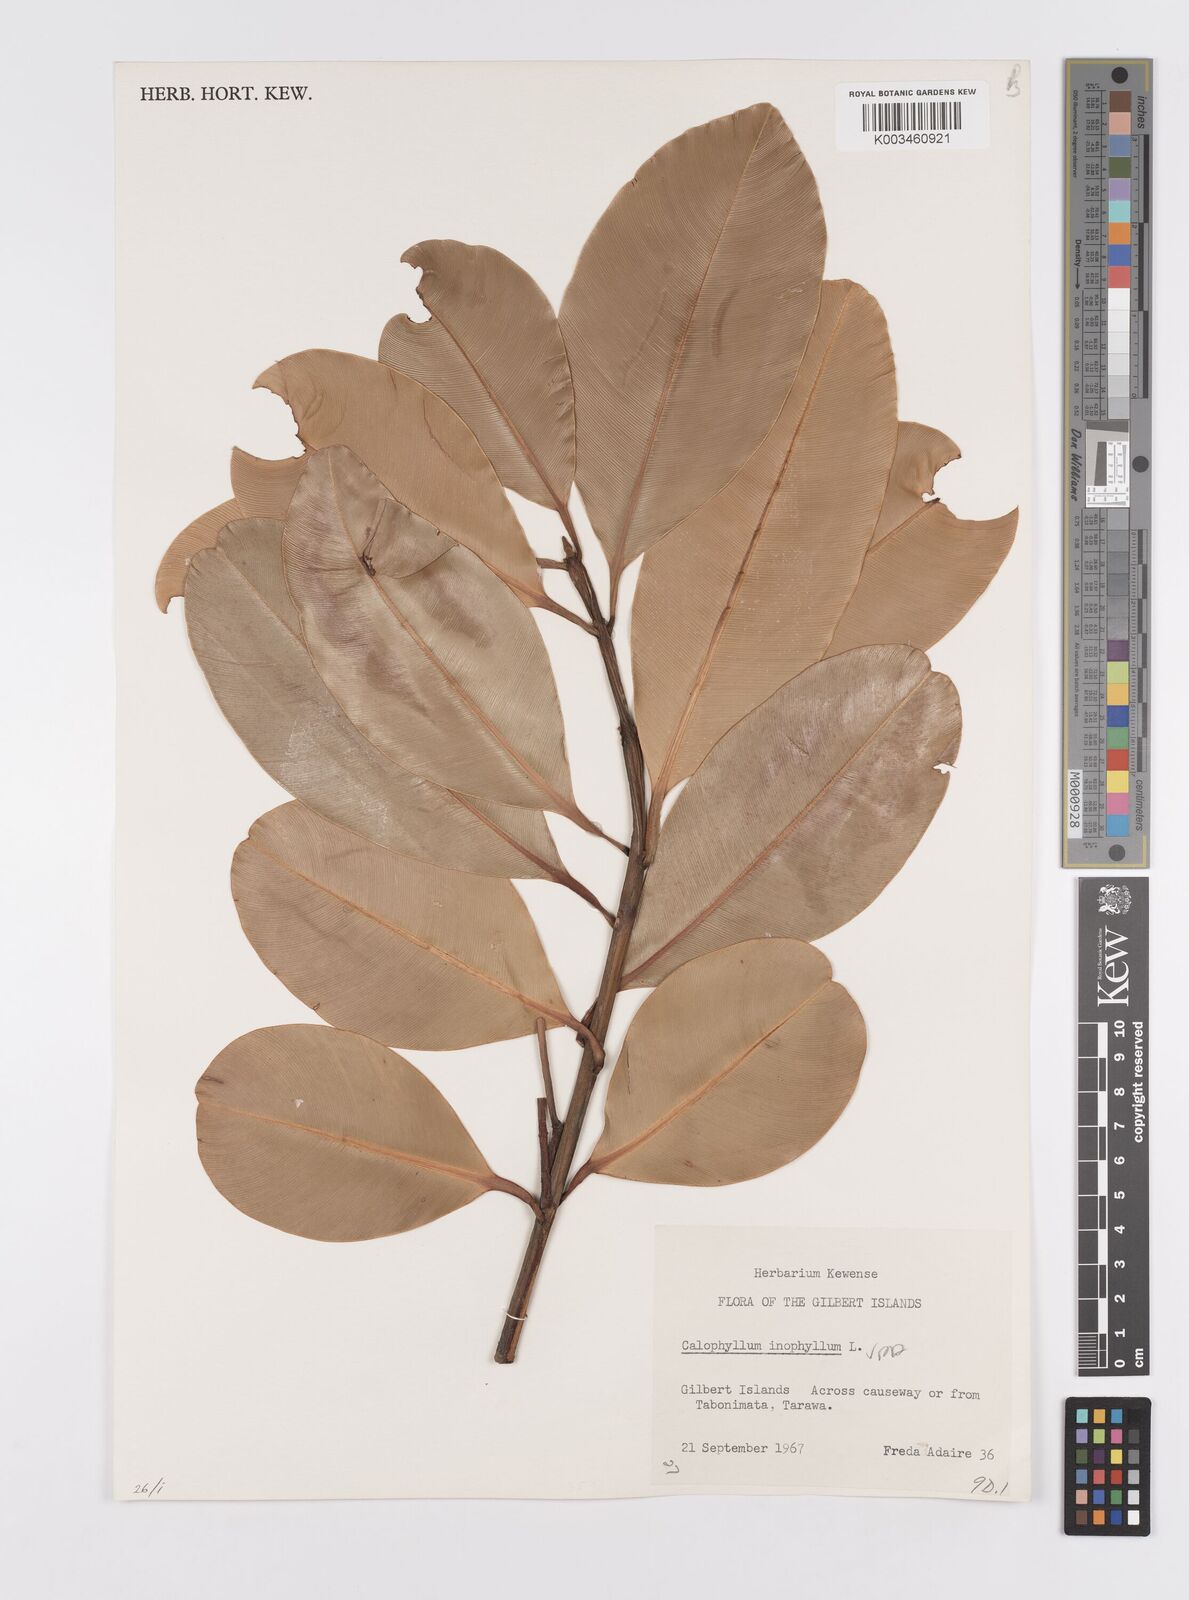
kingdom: Plantae
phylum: Tracheophyta
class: Magnoliopsida
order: Malpighiales
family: Calophyllaceae
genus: Calophyllum
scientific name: Calophyllum inophyllum
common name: Alexandrian laurel
